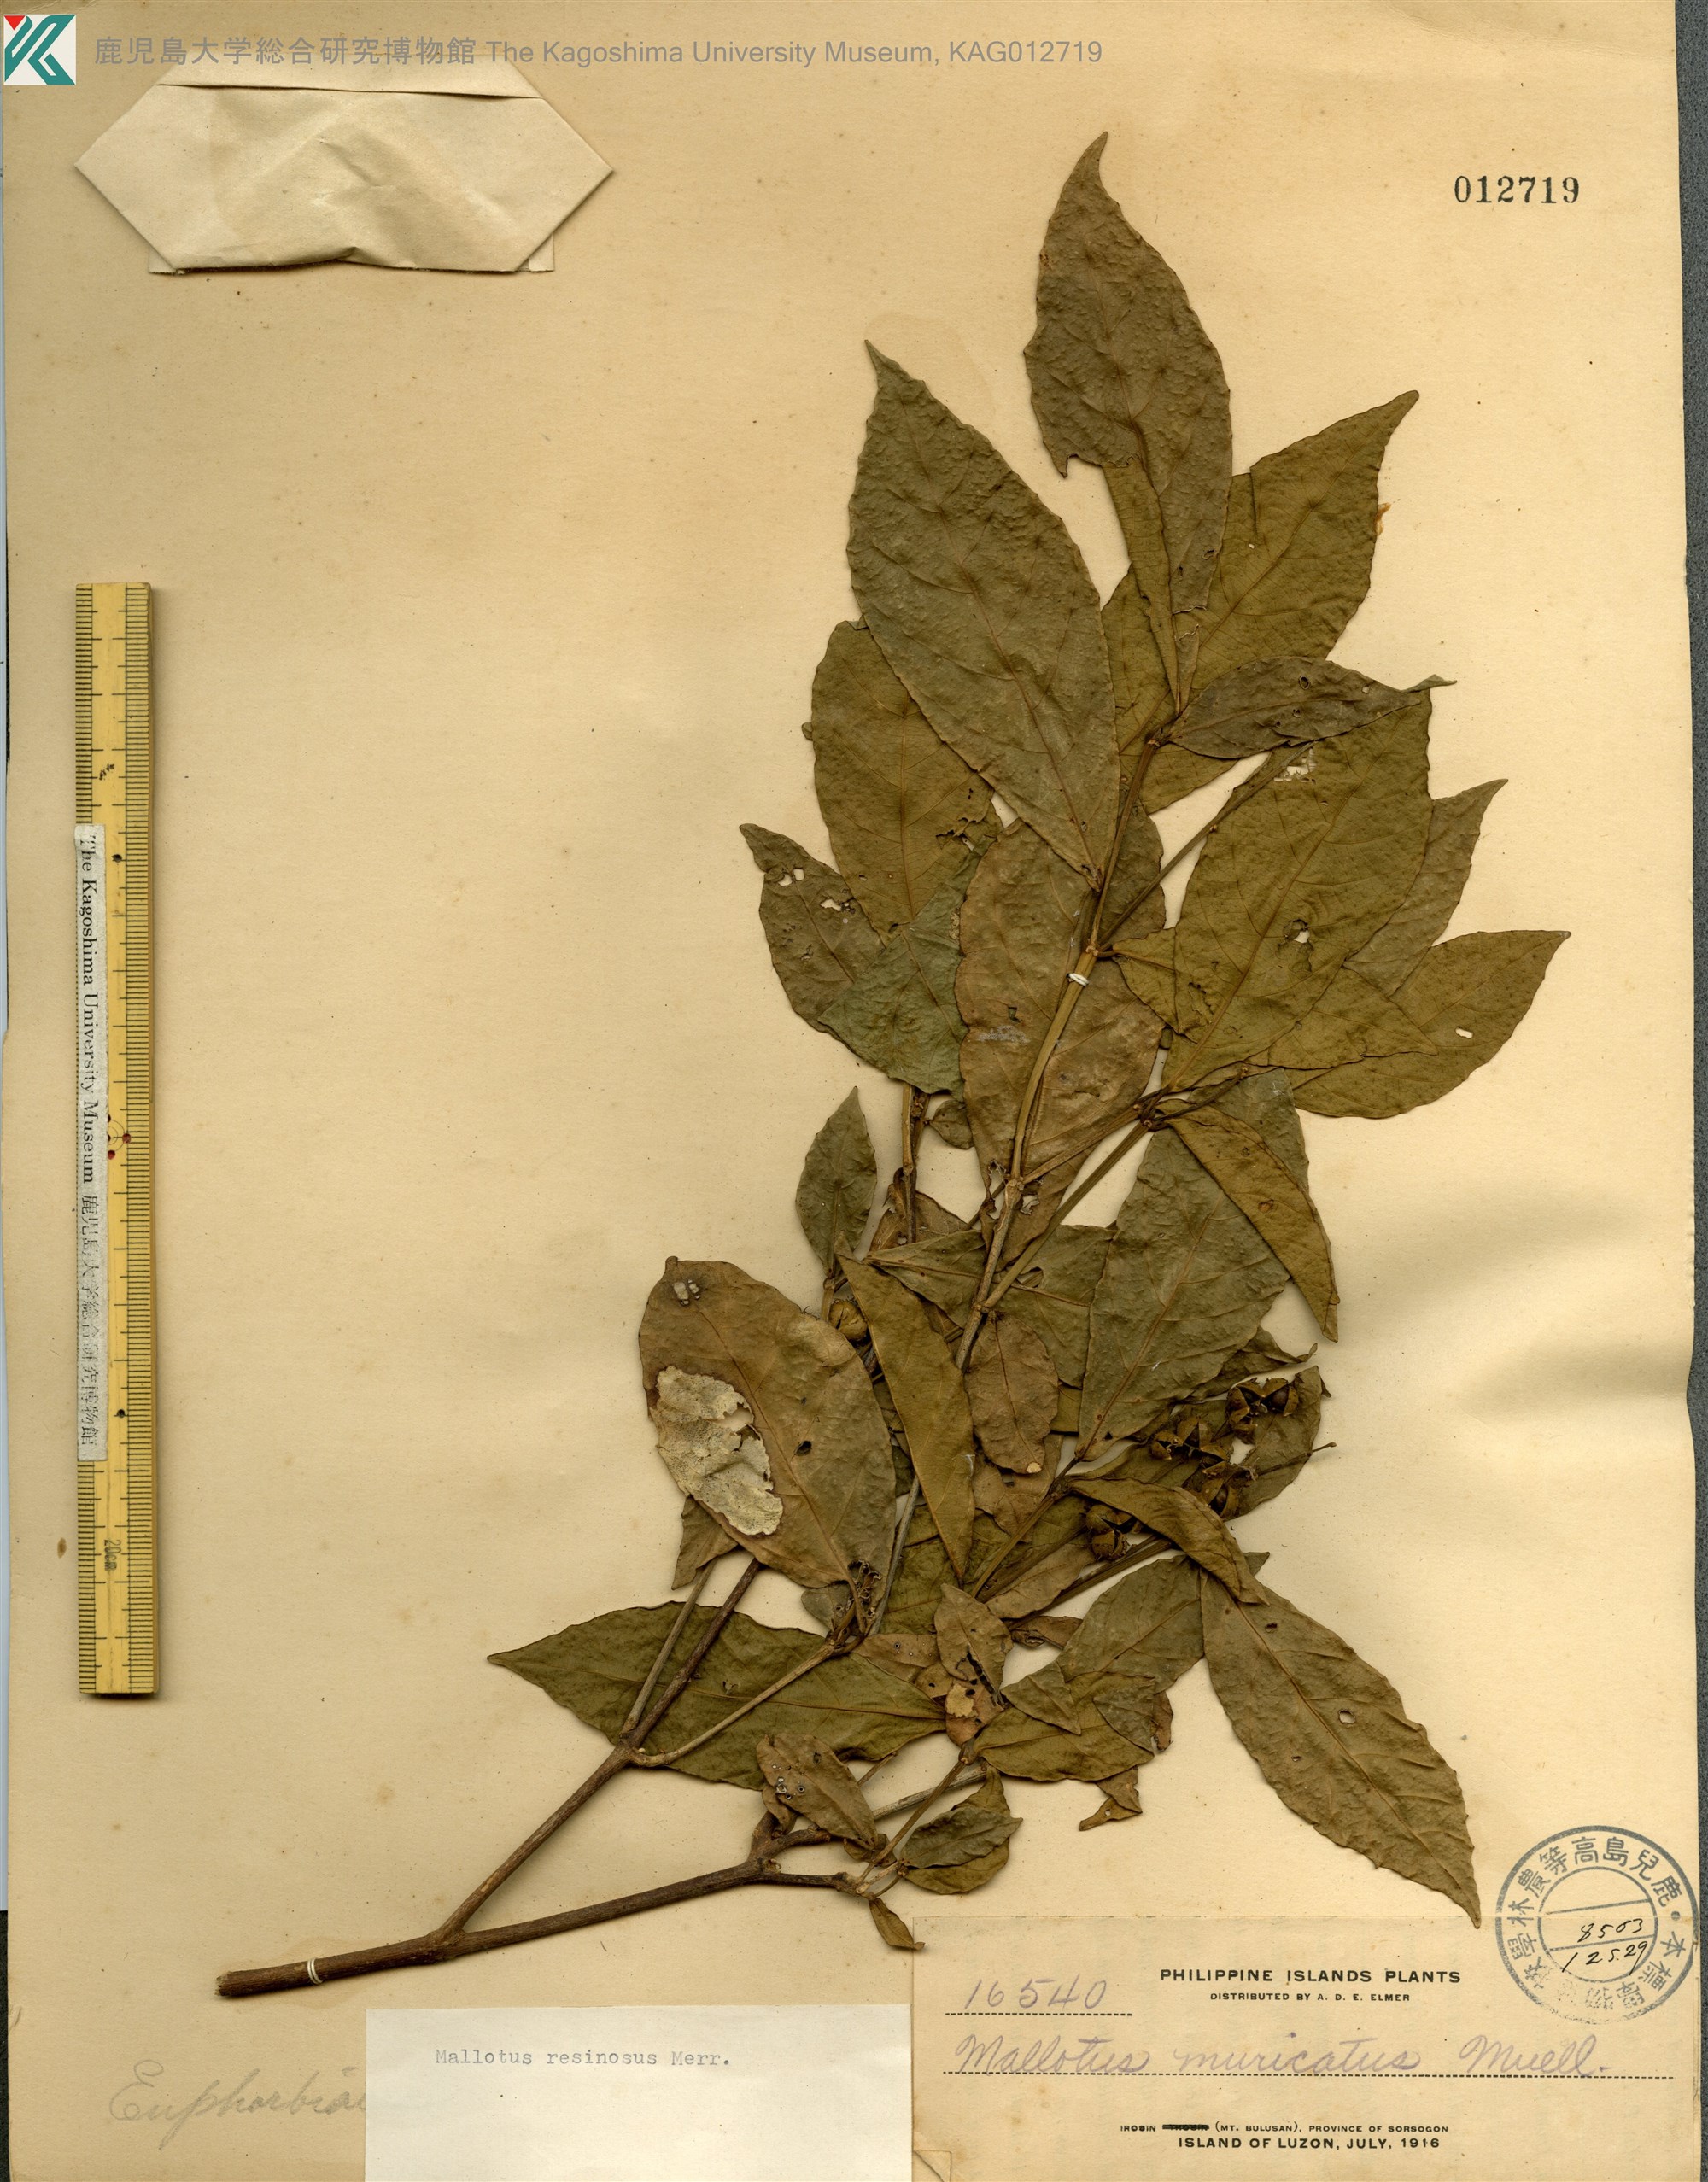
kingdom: Plantae
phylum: Tracheophyta
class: Magnoliopsida
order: Malpighiales
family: Euphorbiaceae
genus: Mallotus
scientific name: Mallotus resinosus
